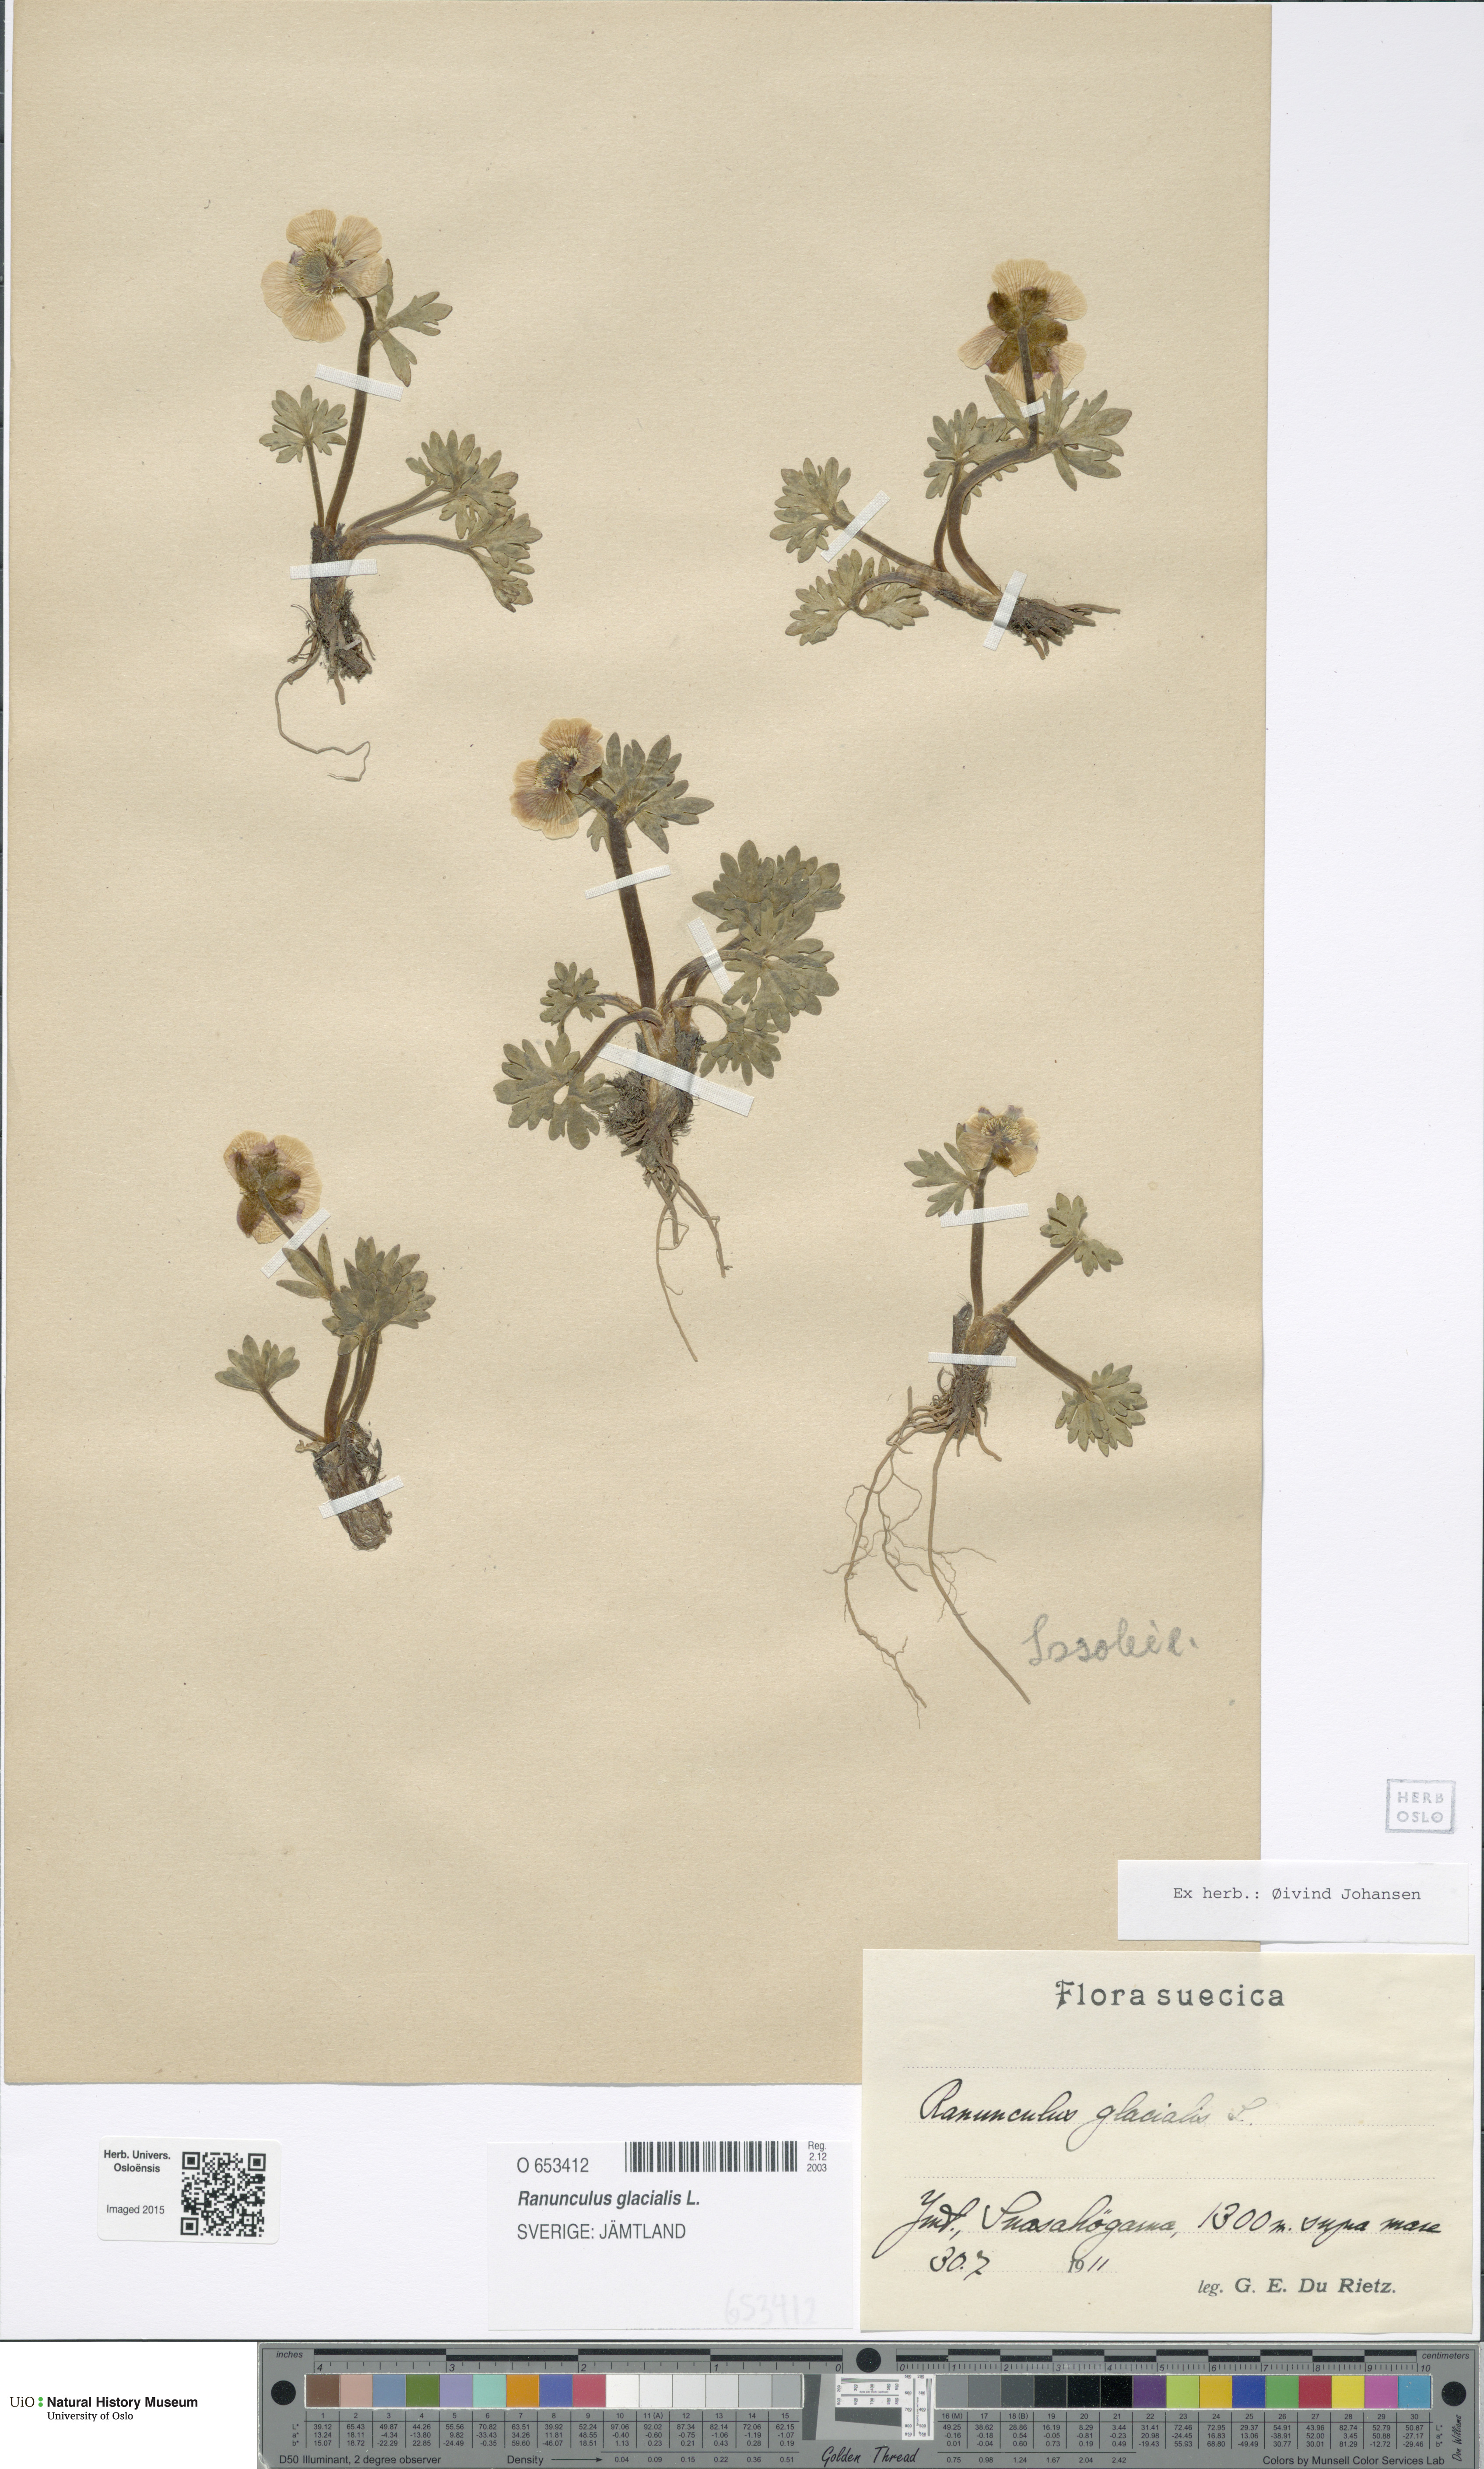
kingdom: Plantae
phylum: Tracheophyta
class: Magnoliopsida
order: Ranunculales
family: Ranunculaceae
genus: Ranunculus
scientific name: Ranunculus glacialis
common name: Glacier buttercup
